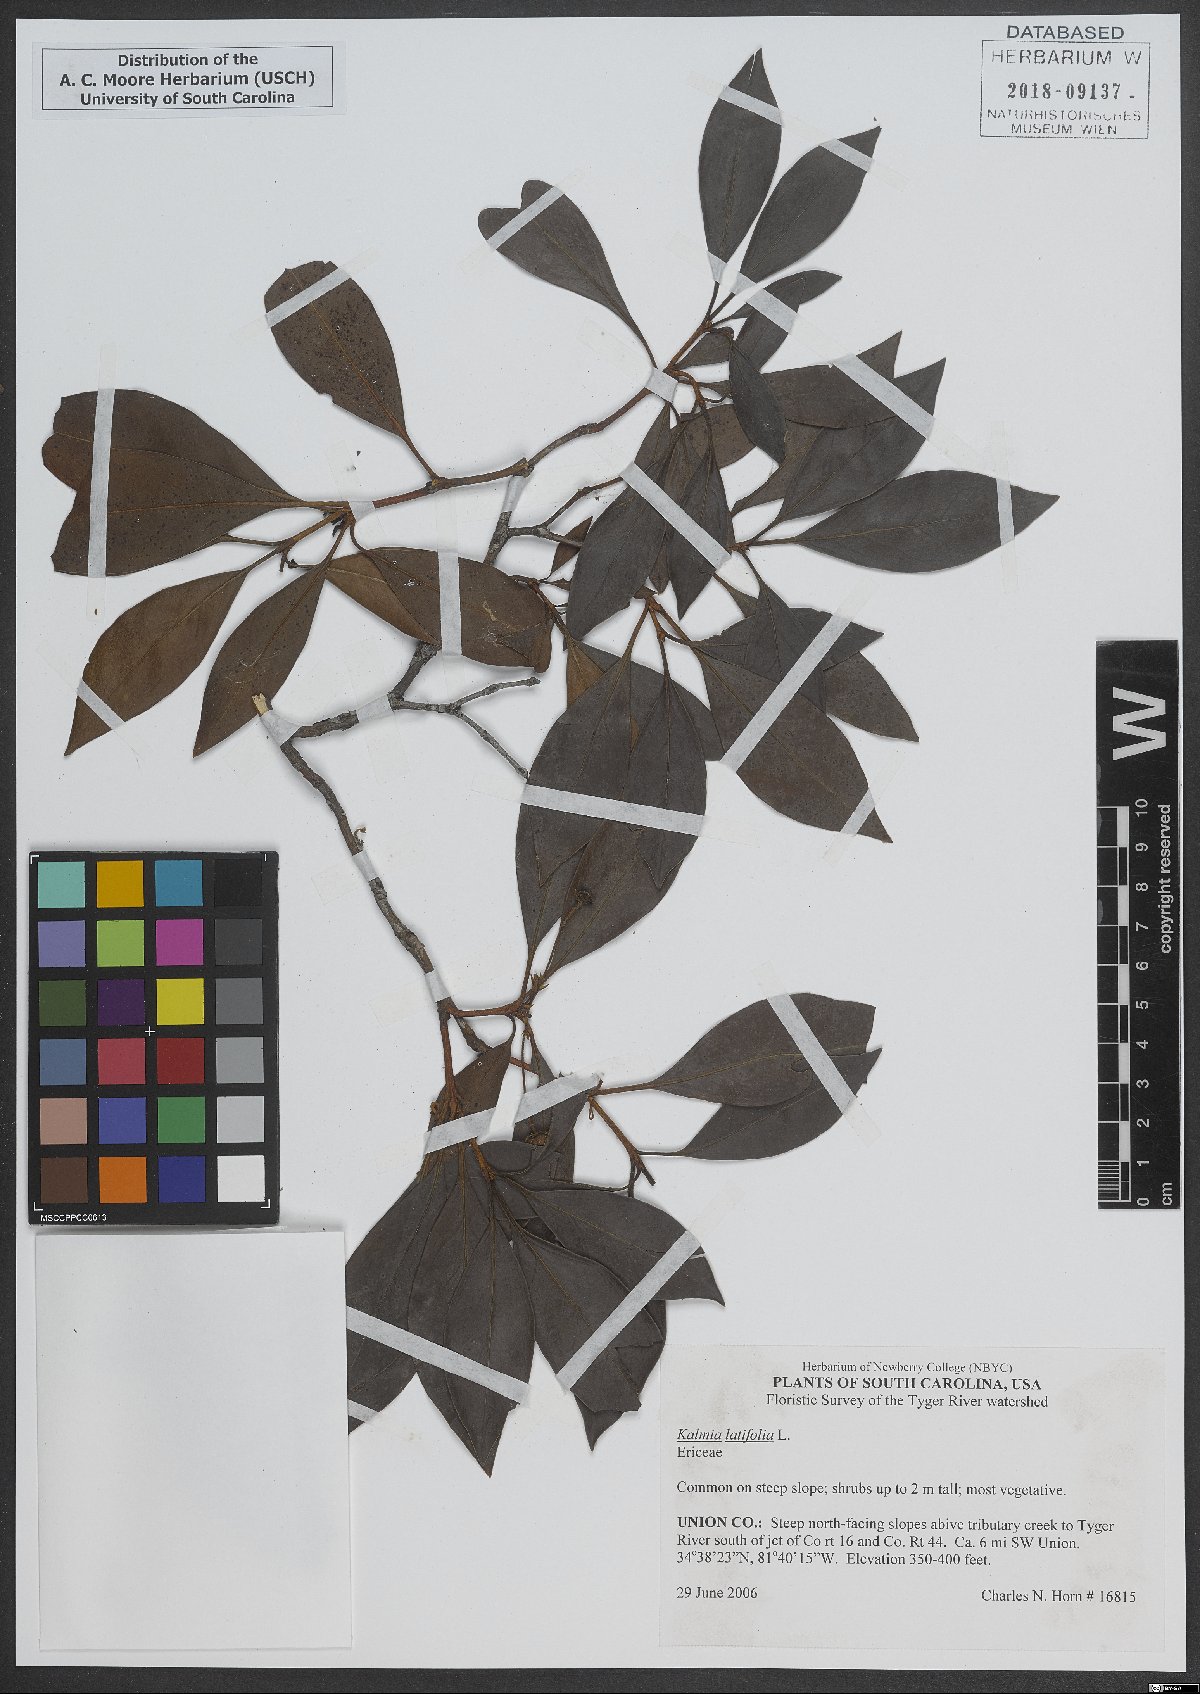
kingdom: Plantae
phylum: Tracheophyta
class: Magnoliopsida
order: Ericales
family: Ericaceae
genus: Kalmia
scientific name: Kalmia latifolia
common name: Mountain-laurel
